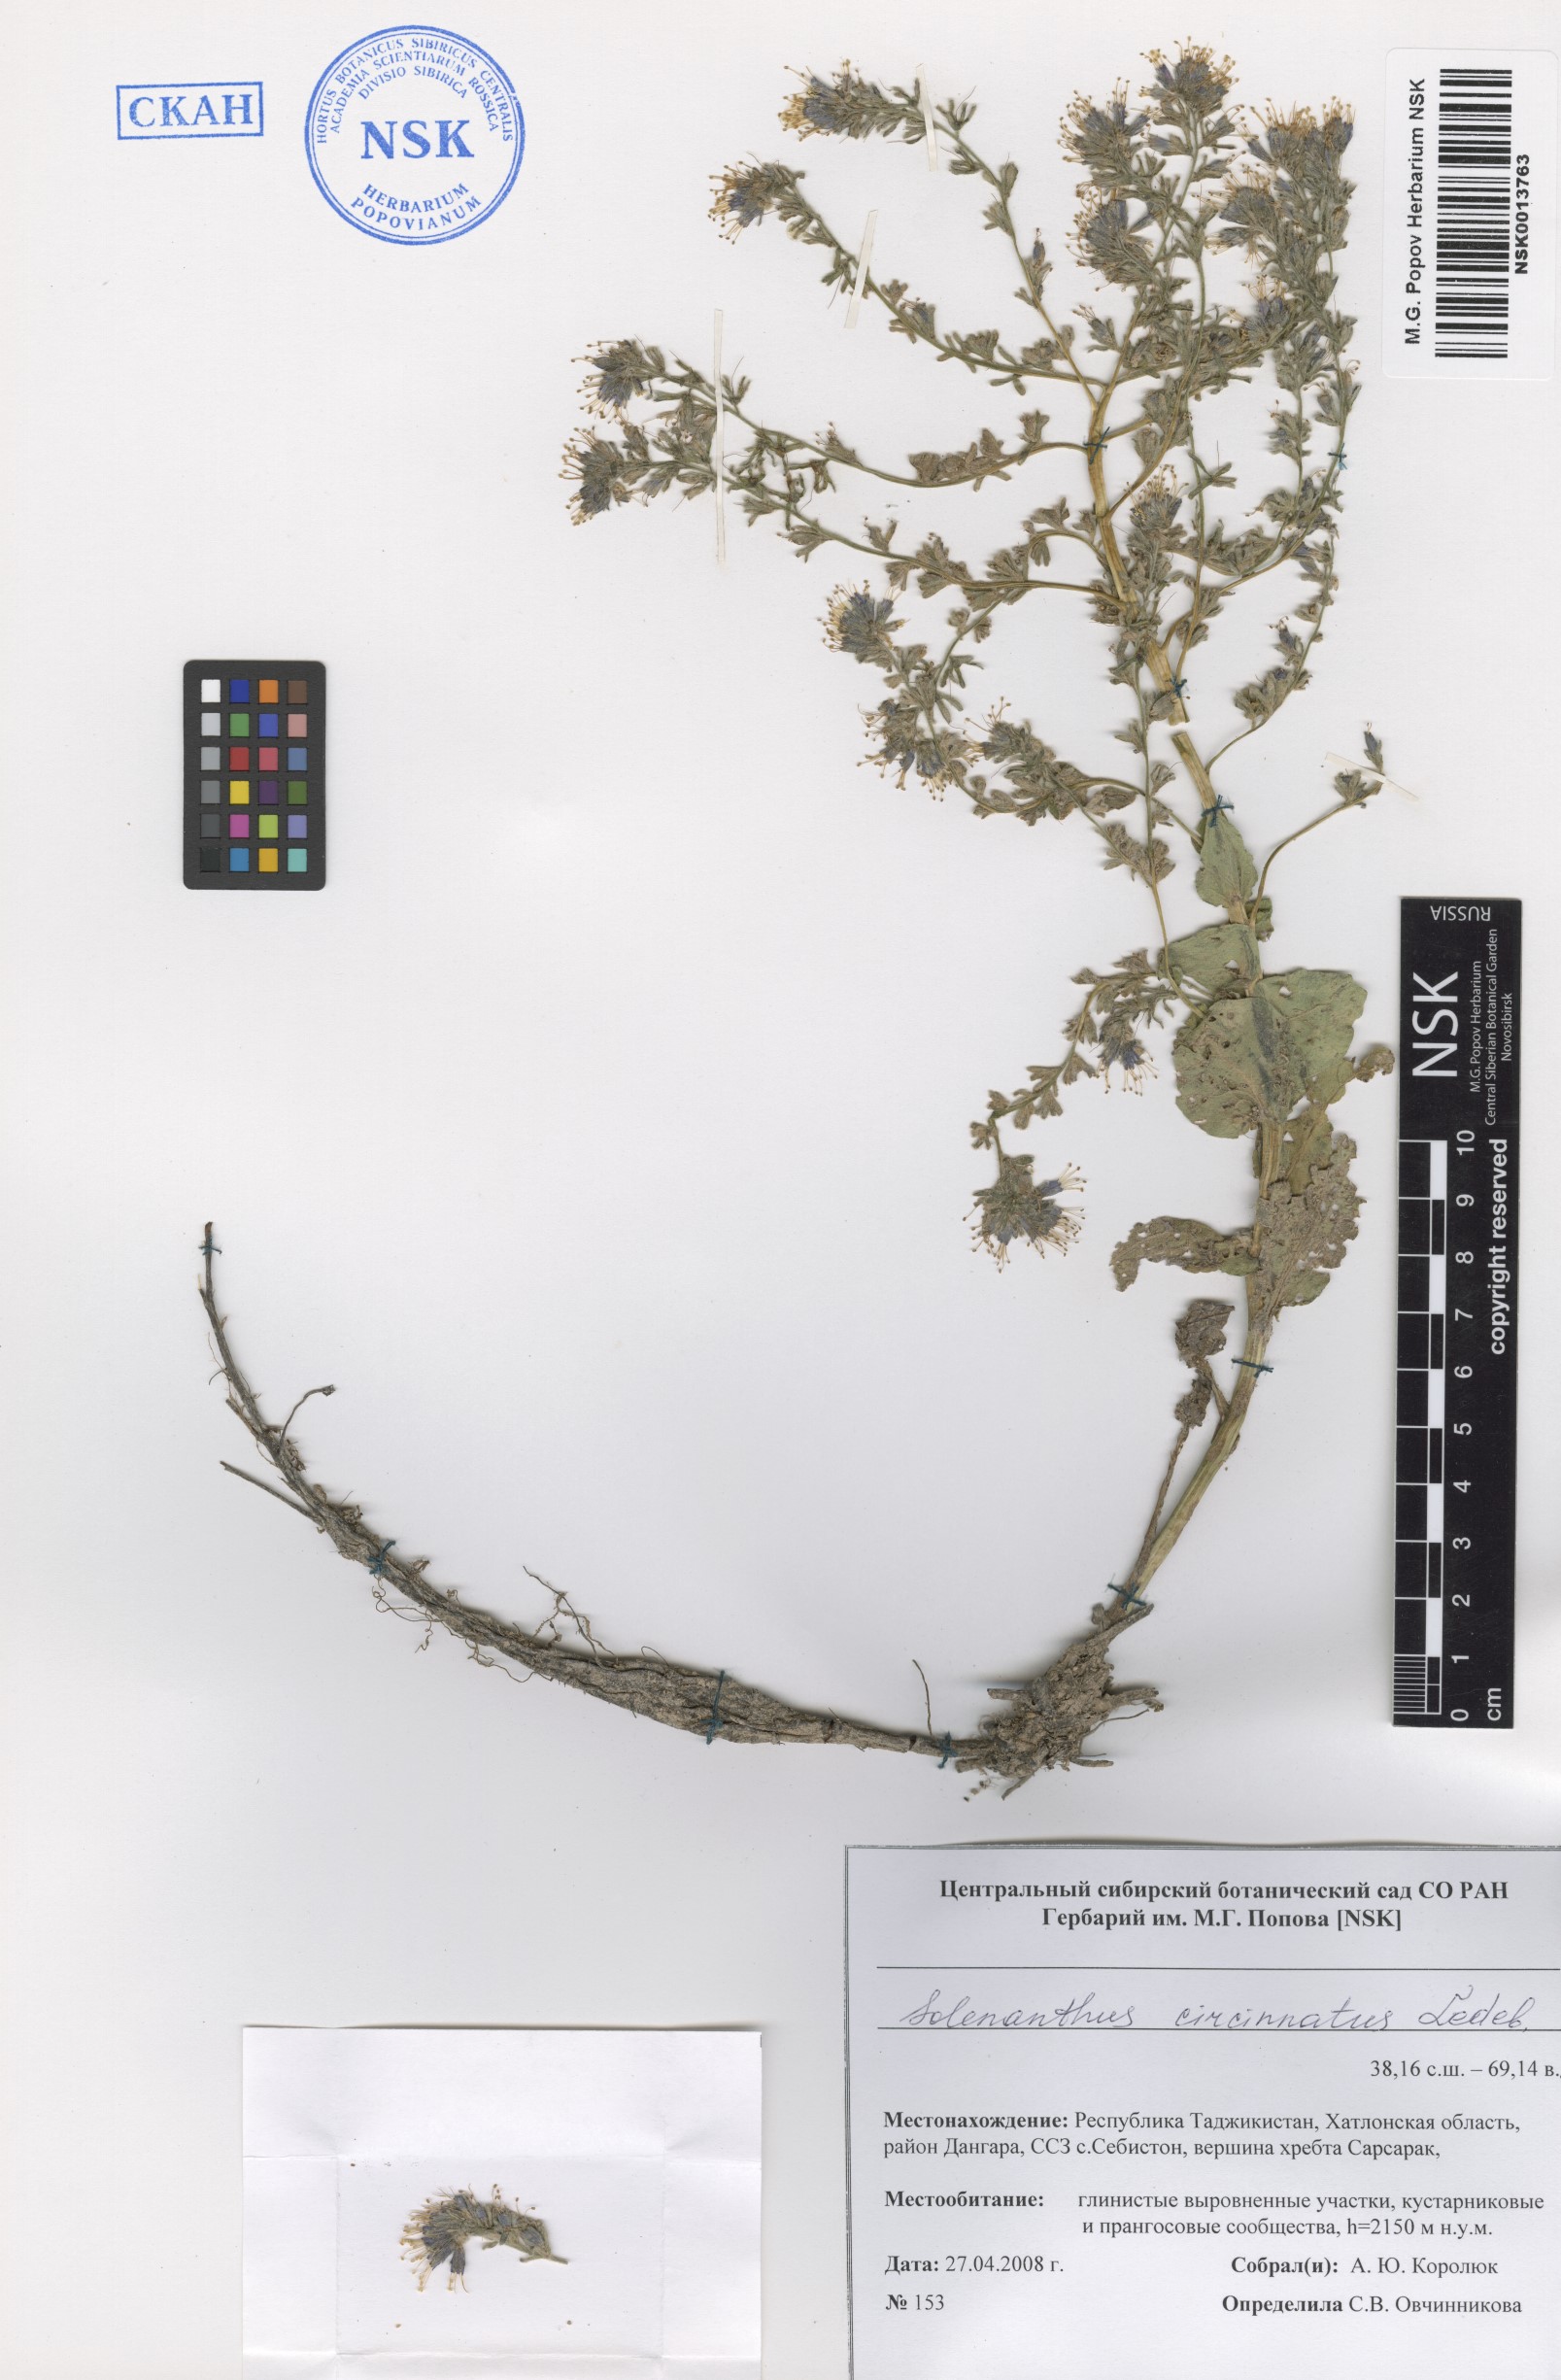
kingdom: Plantae
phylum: Tracheophyta
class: Magnoliopsida
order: Boraginales
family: Boraginaceae
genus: Solenanthus
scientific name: Solenanthus circinnatus
